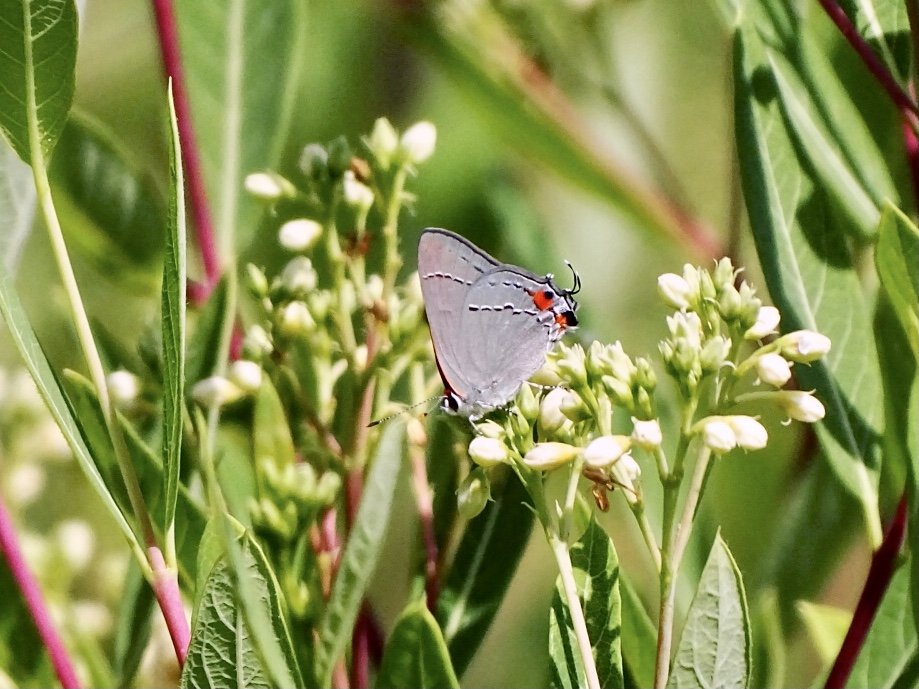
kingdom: Animalia
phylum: Arthropoda
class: Insecta
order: Lepidoptera
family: Lycaenidae
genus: Strymon
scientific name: Strymon melinus
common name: Gray Hairstreak
